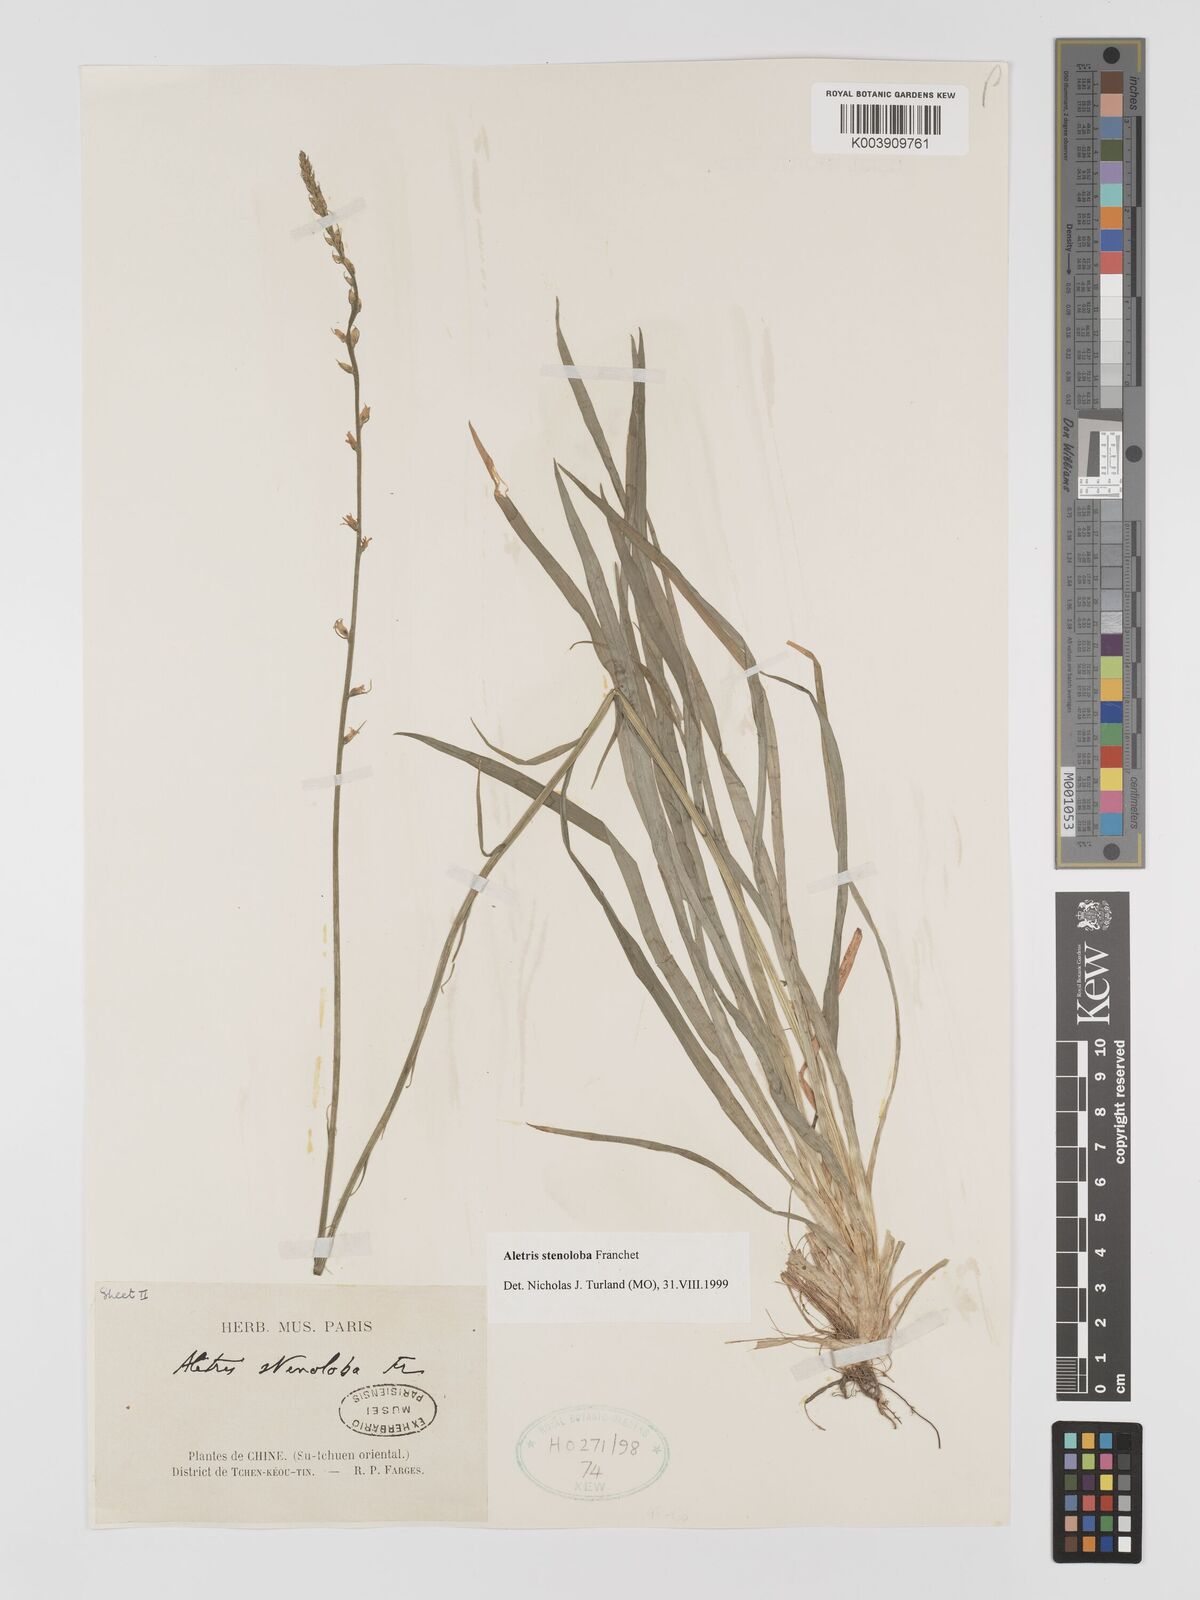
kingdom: Plantae
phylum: Tracheophyta
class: Liliopsida
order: Dioscoreales
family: Nartheciaceae
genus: Aletris
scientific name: Aletris stenoloba
